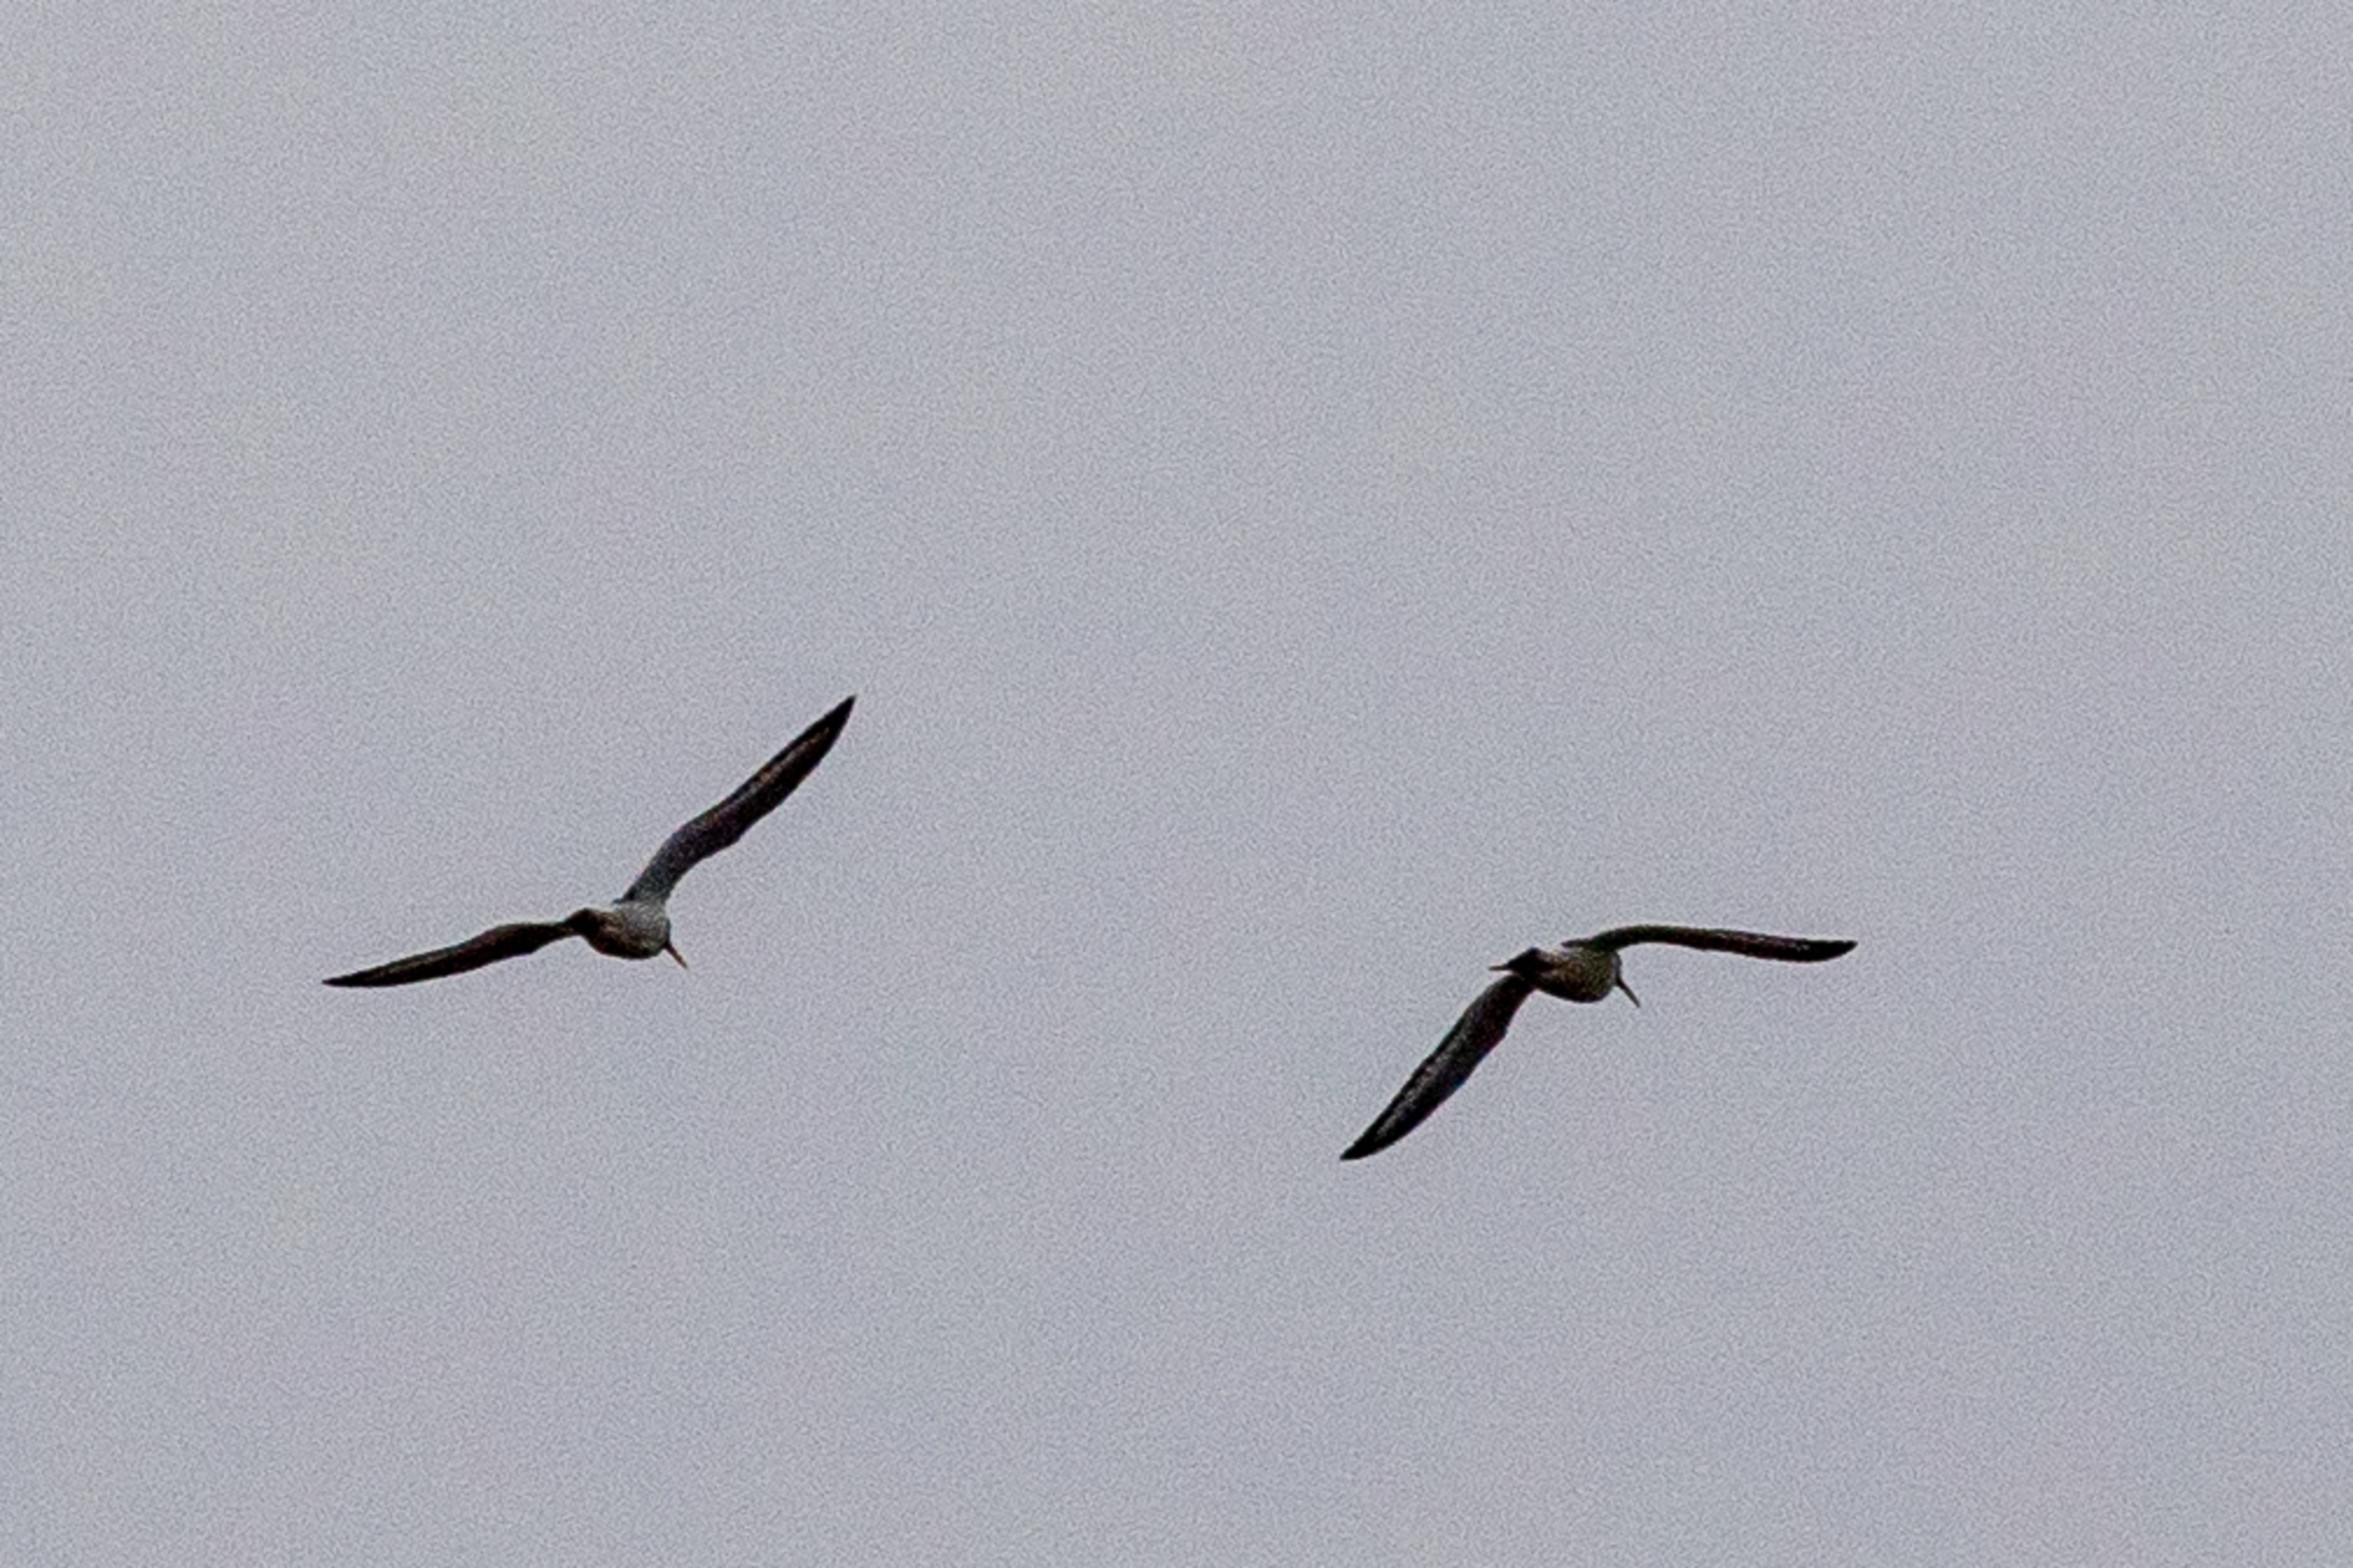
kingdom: Animalia
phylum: Chordata
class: Aves
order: Charadriiformes
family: Haematopodidae
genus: Haematopus
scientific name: Haematopus ostralegus
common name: Strandskade
